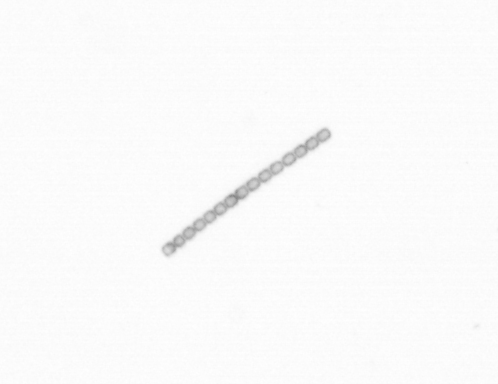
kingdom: Chromista
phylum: Ochrophyta
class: Bacillariophyceae
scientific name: Bacillariophyceae
